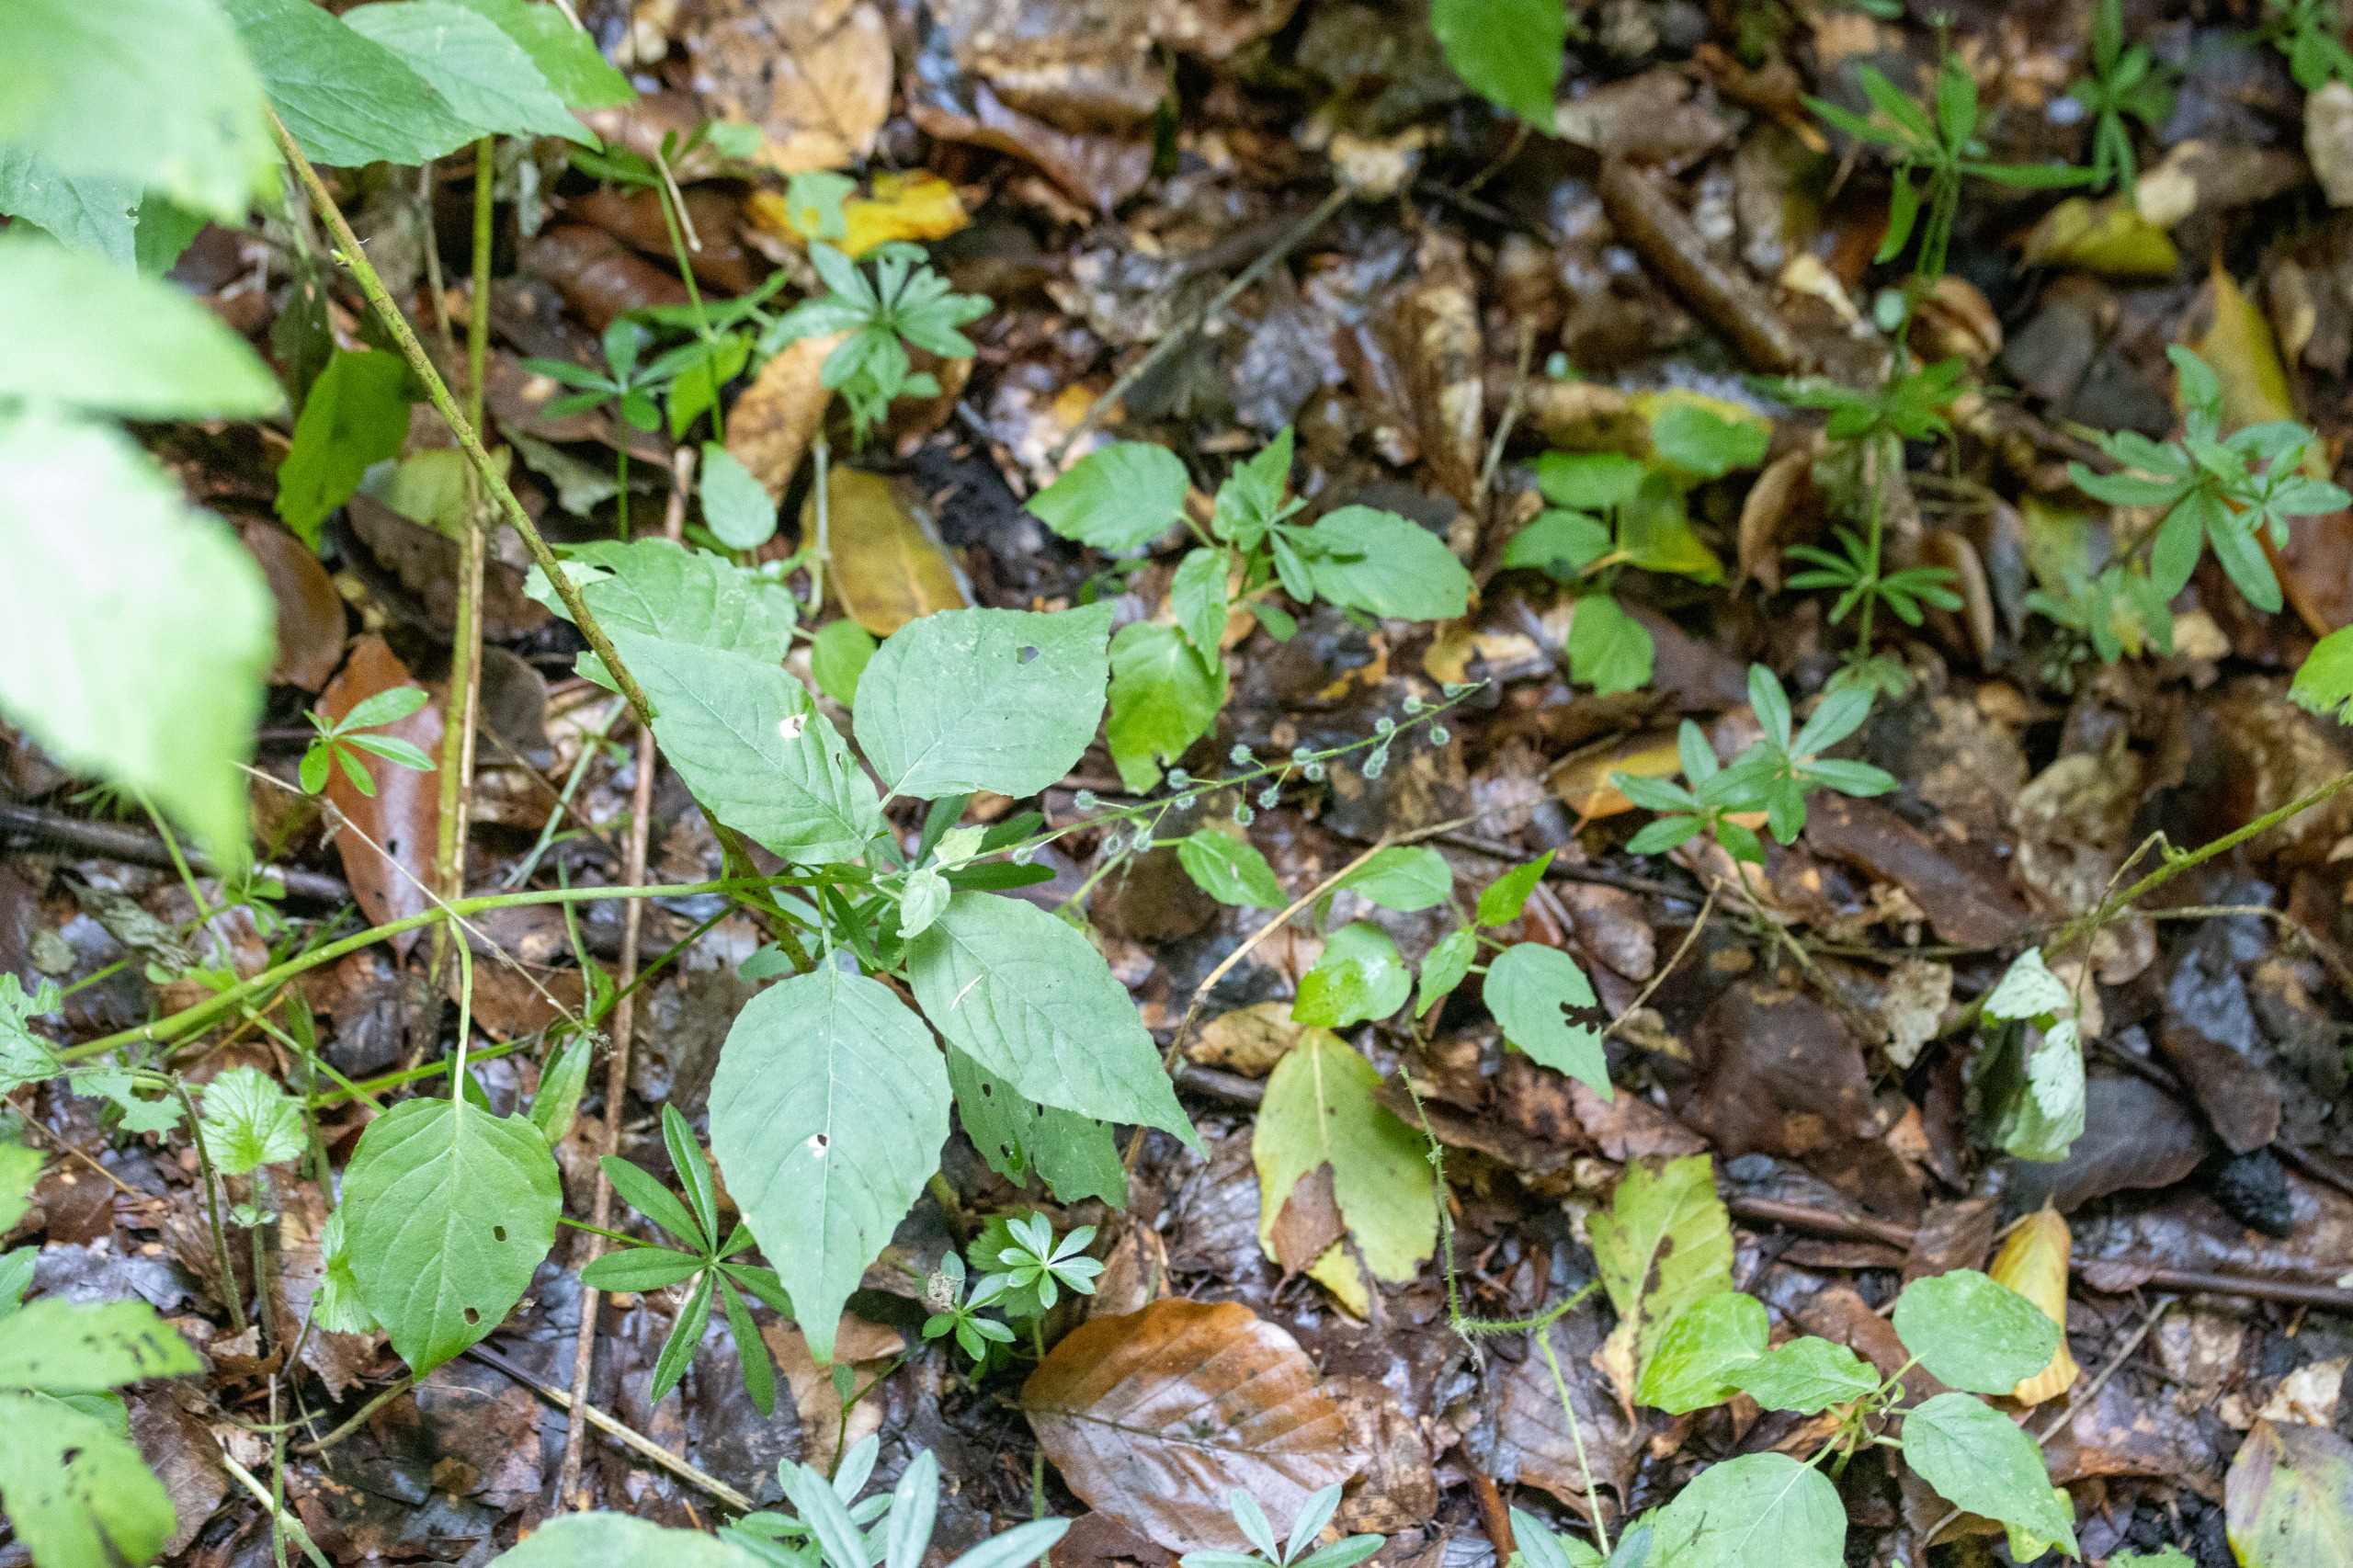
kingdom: Plantae
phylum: Tracheophyta
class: Magnoliopsida
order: Gentianales
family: Rubiaceae
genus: Galium
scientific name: Galium odoratum
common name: Skovmærke
